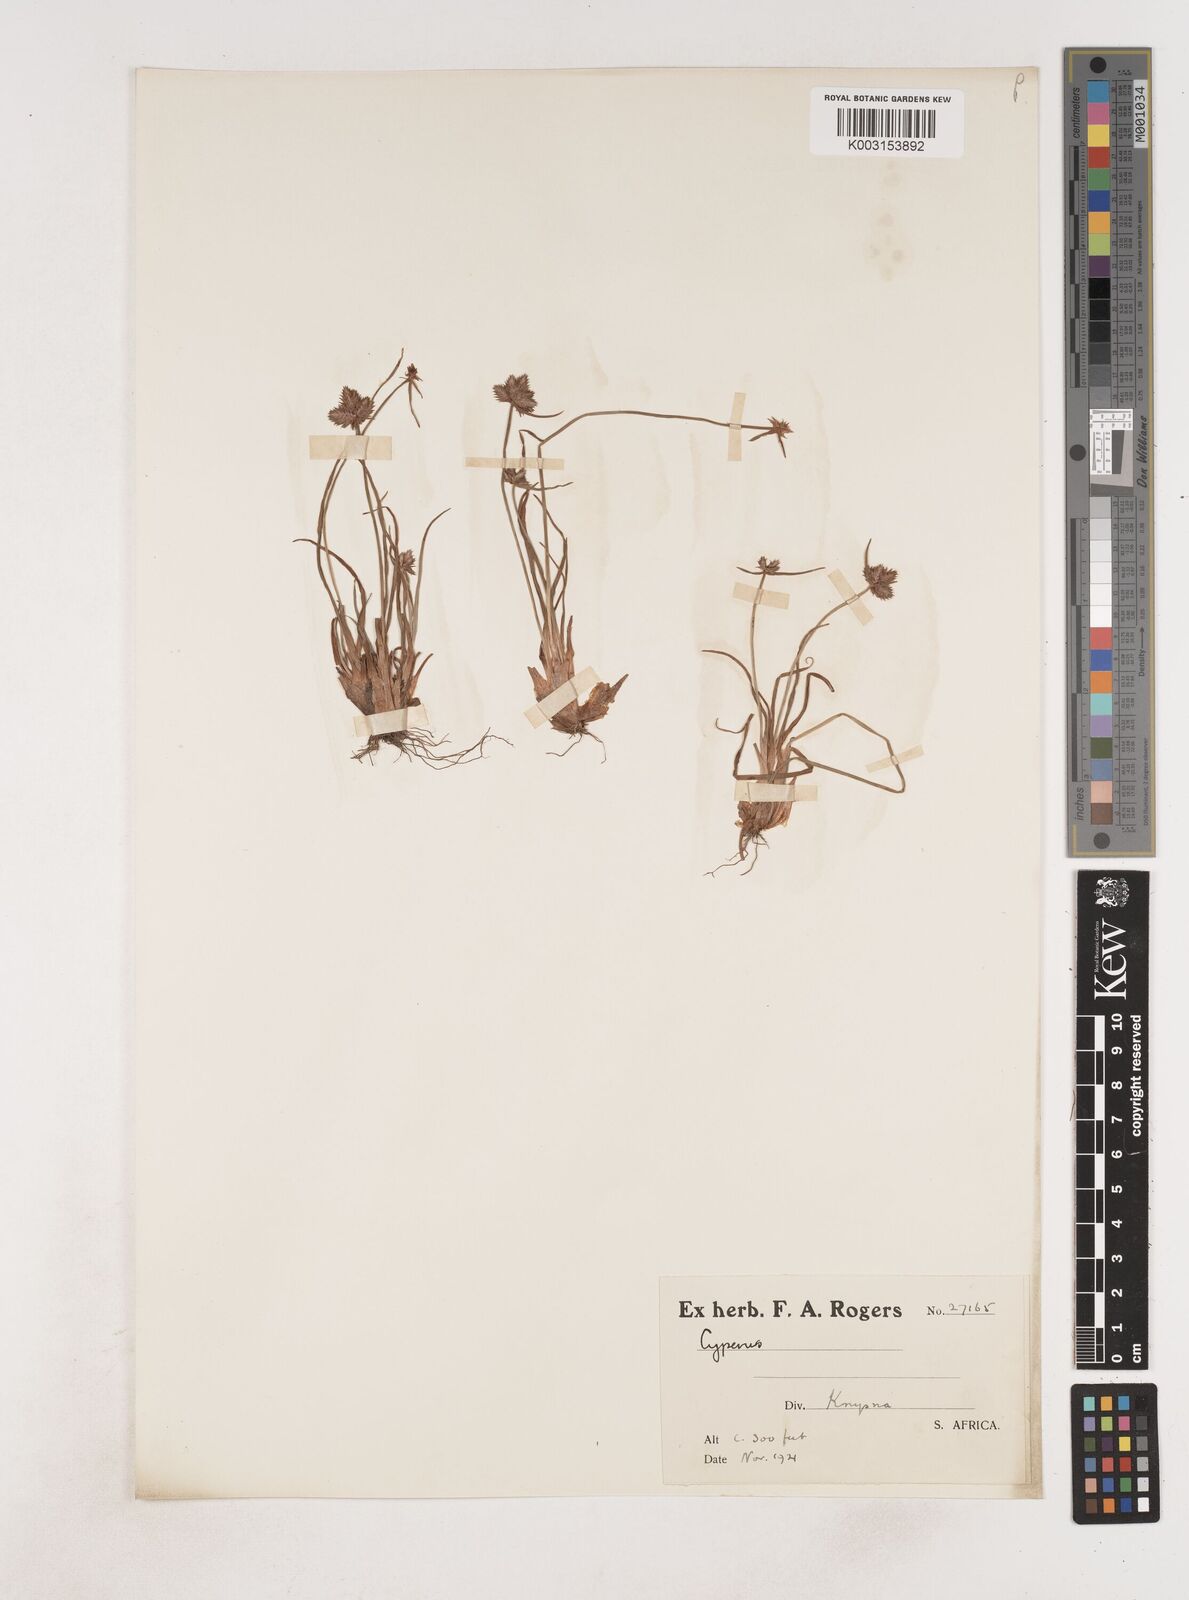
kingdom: Plantae
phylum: Tracheophyta
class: Liliopsida
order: Poales
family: Cyperaceae
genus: Cyperus
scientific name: Cyperus
